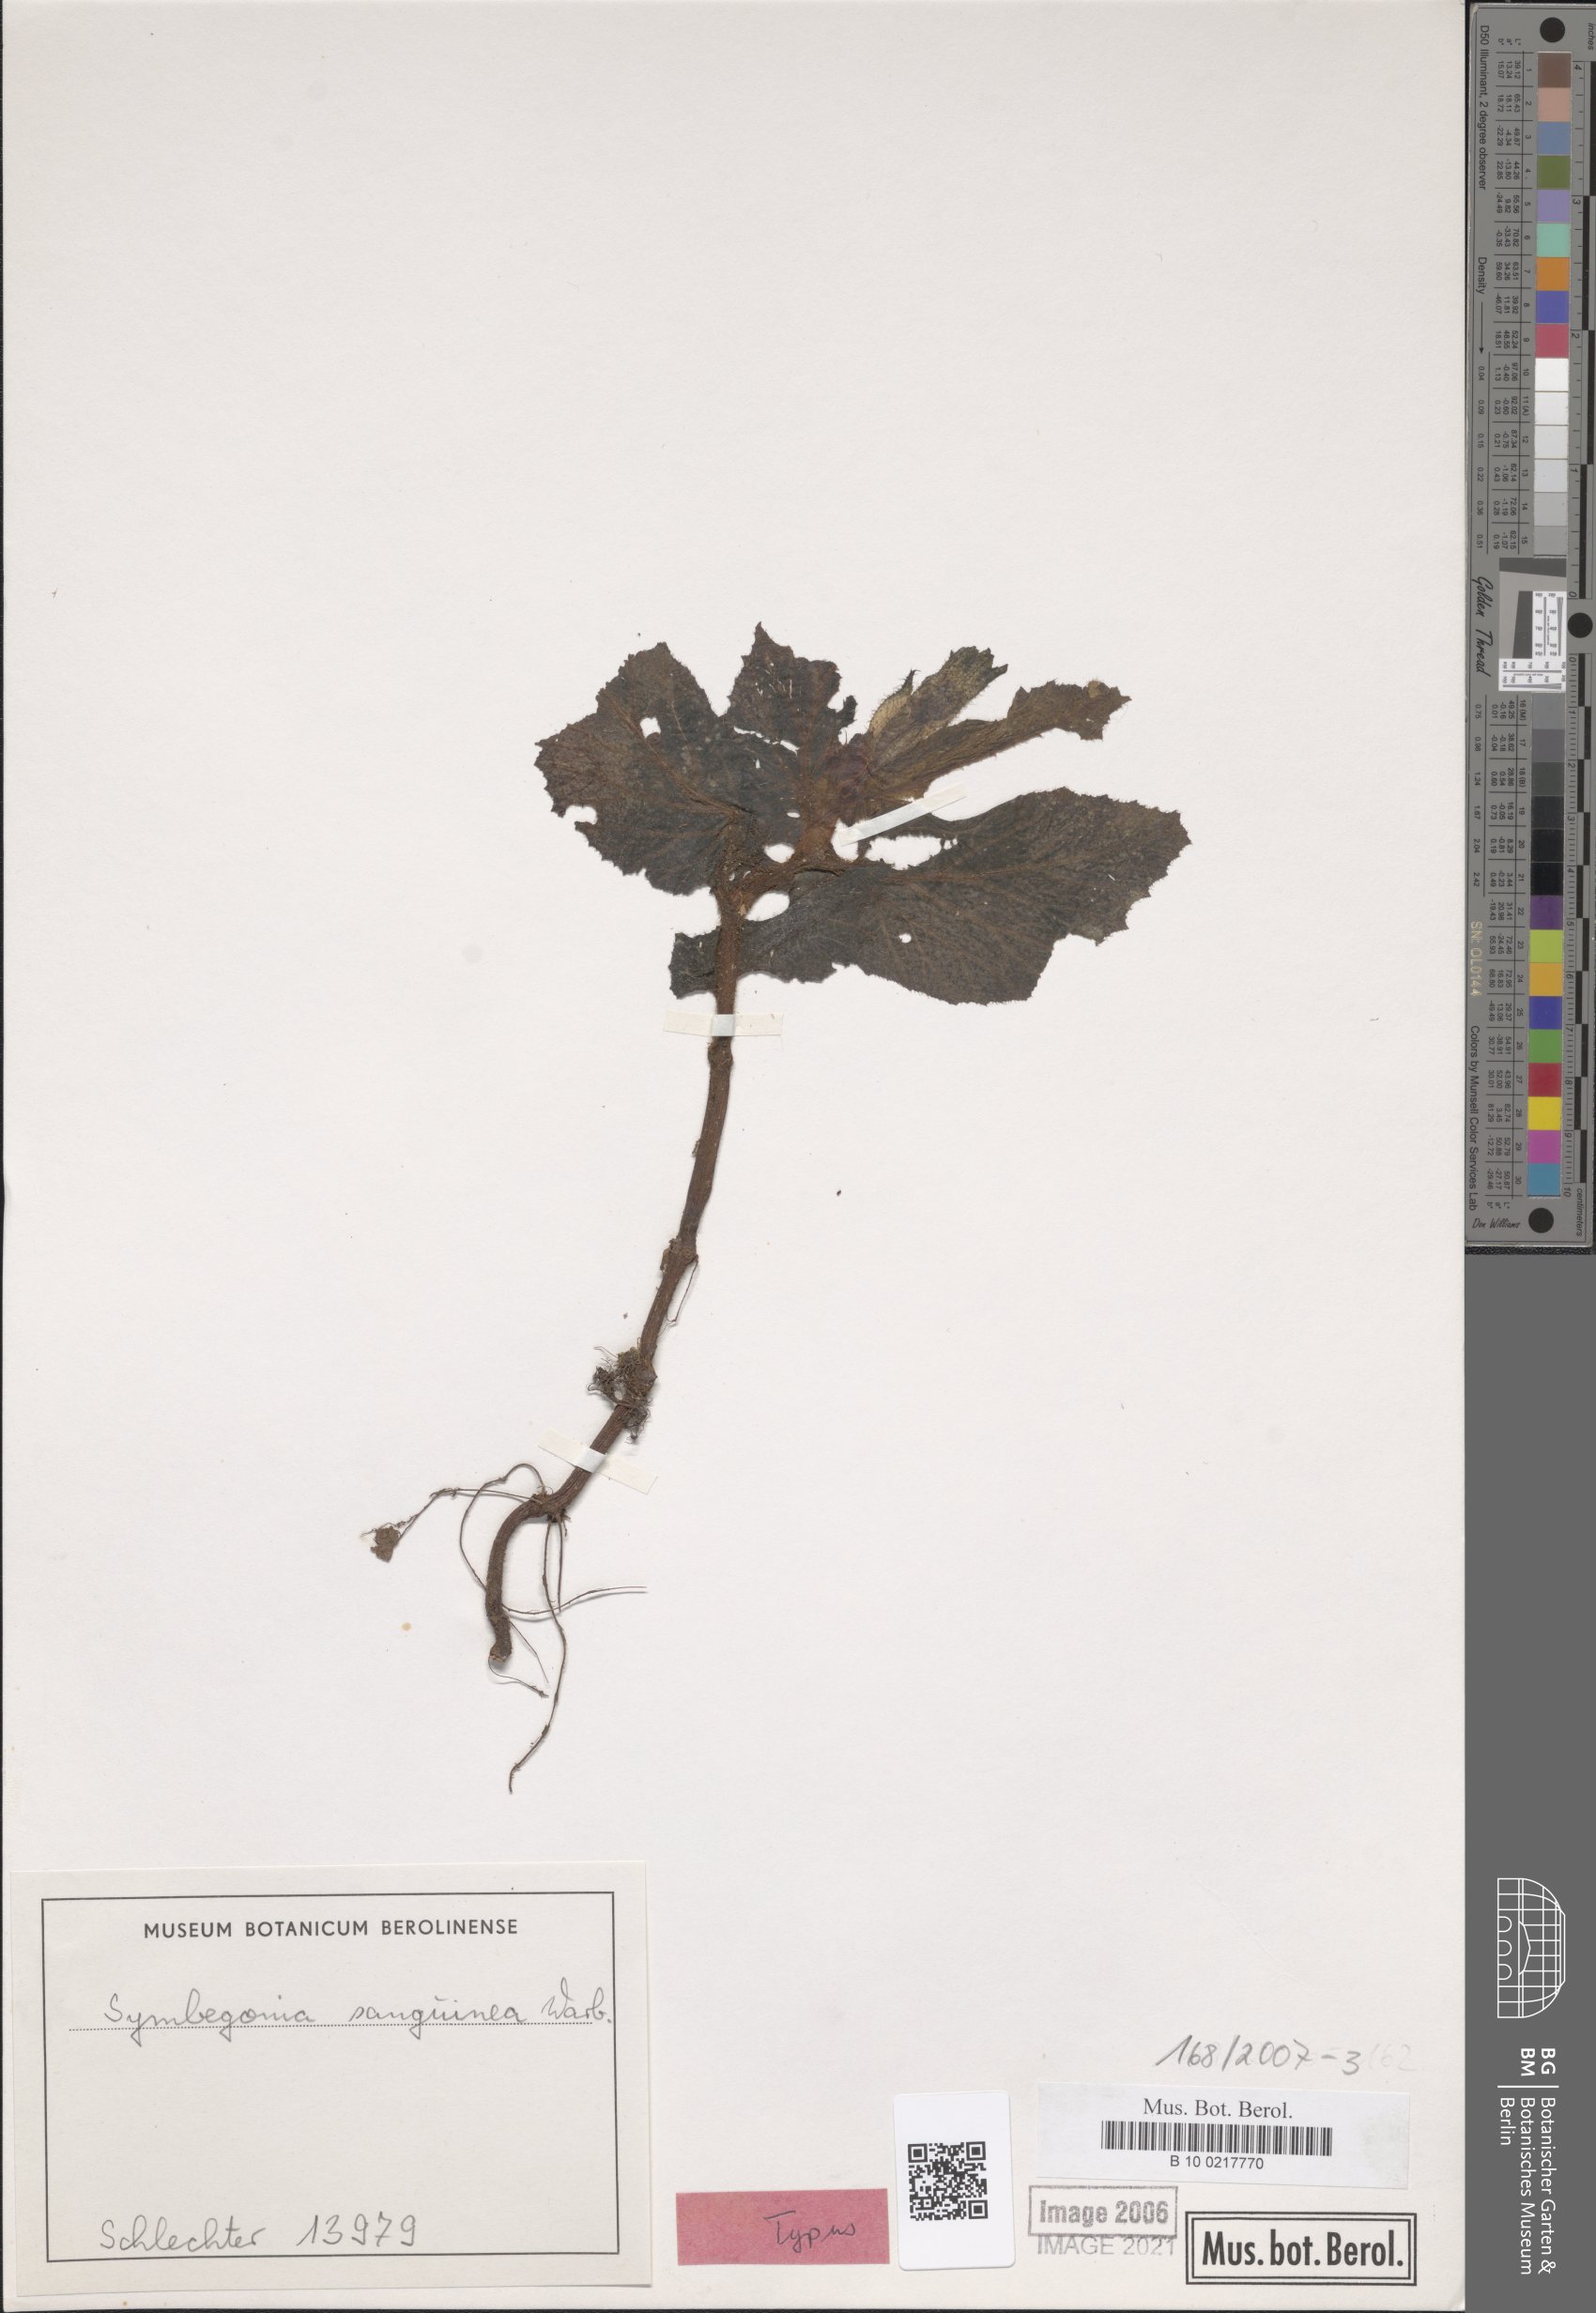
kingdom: Plantae
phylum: Tracheophyta
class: Magnoliopsida
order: Cucurbitales
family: Begoniaceae
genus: Begonia
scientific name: Begonia symsanguinea
